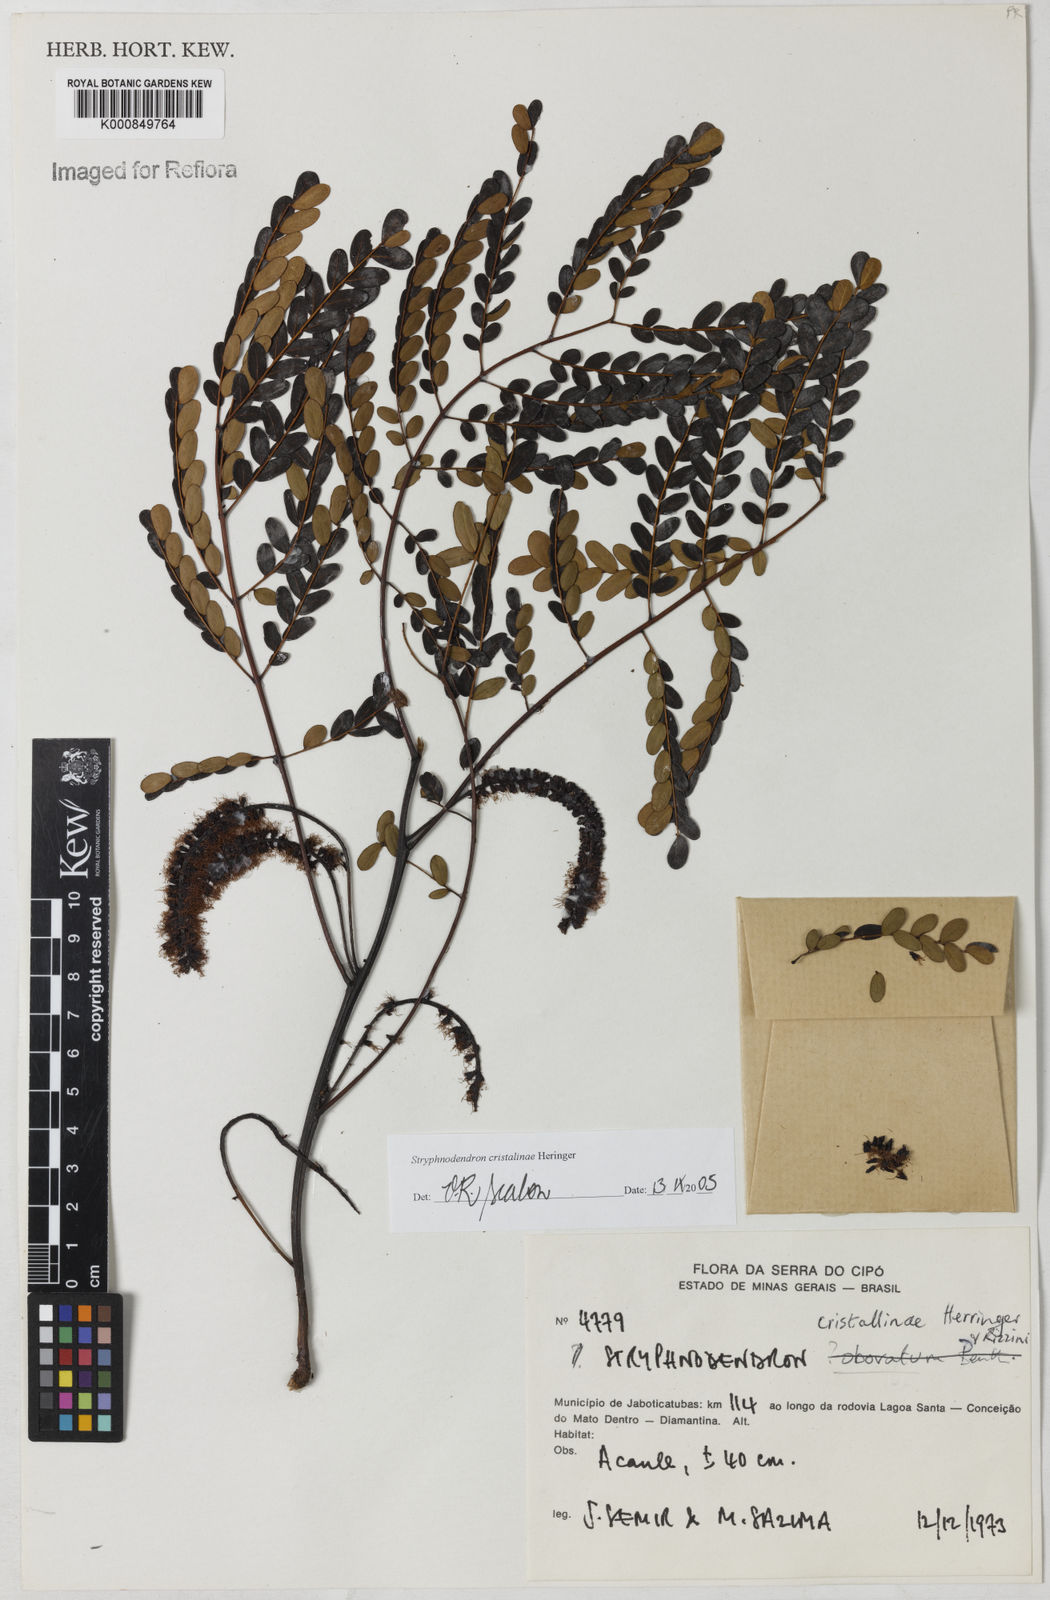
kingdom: Plantae
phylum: Tracheophyta
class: Magnoliopsida
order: Fabales
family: Fabaceae
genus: Stryphnodendron
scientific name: Stryphnodendron cristalinae
